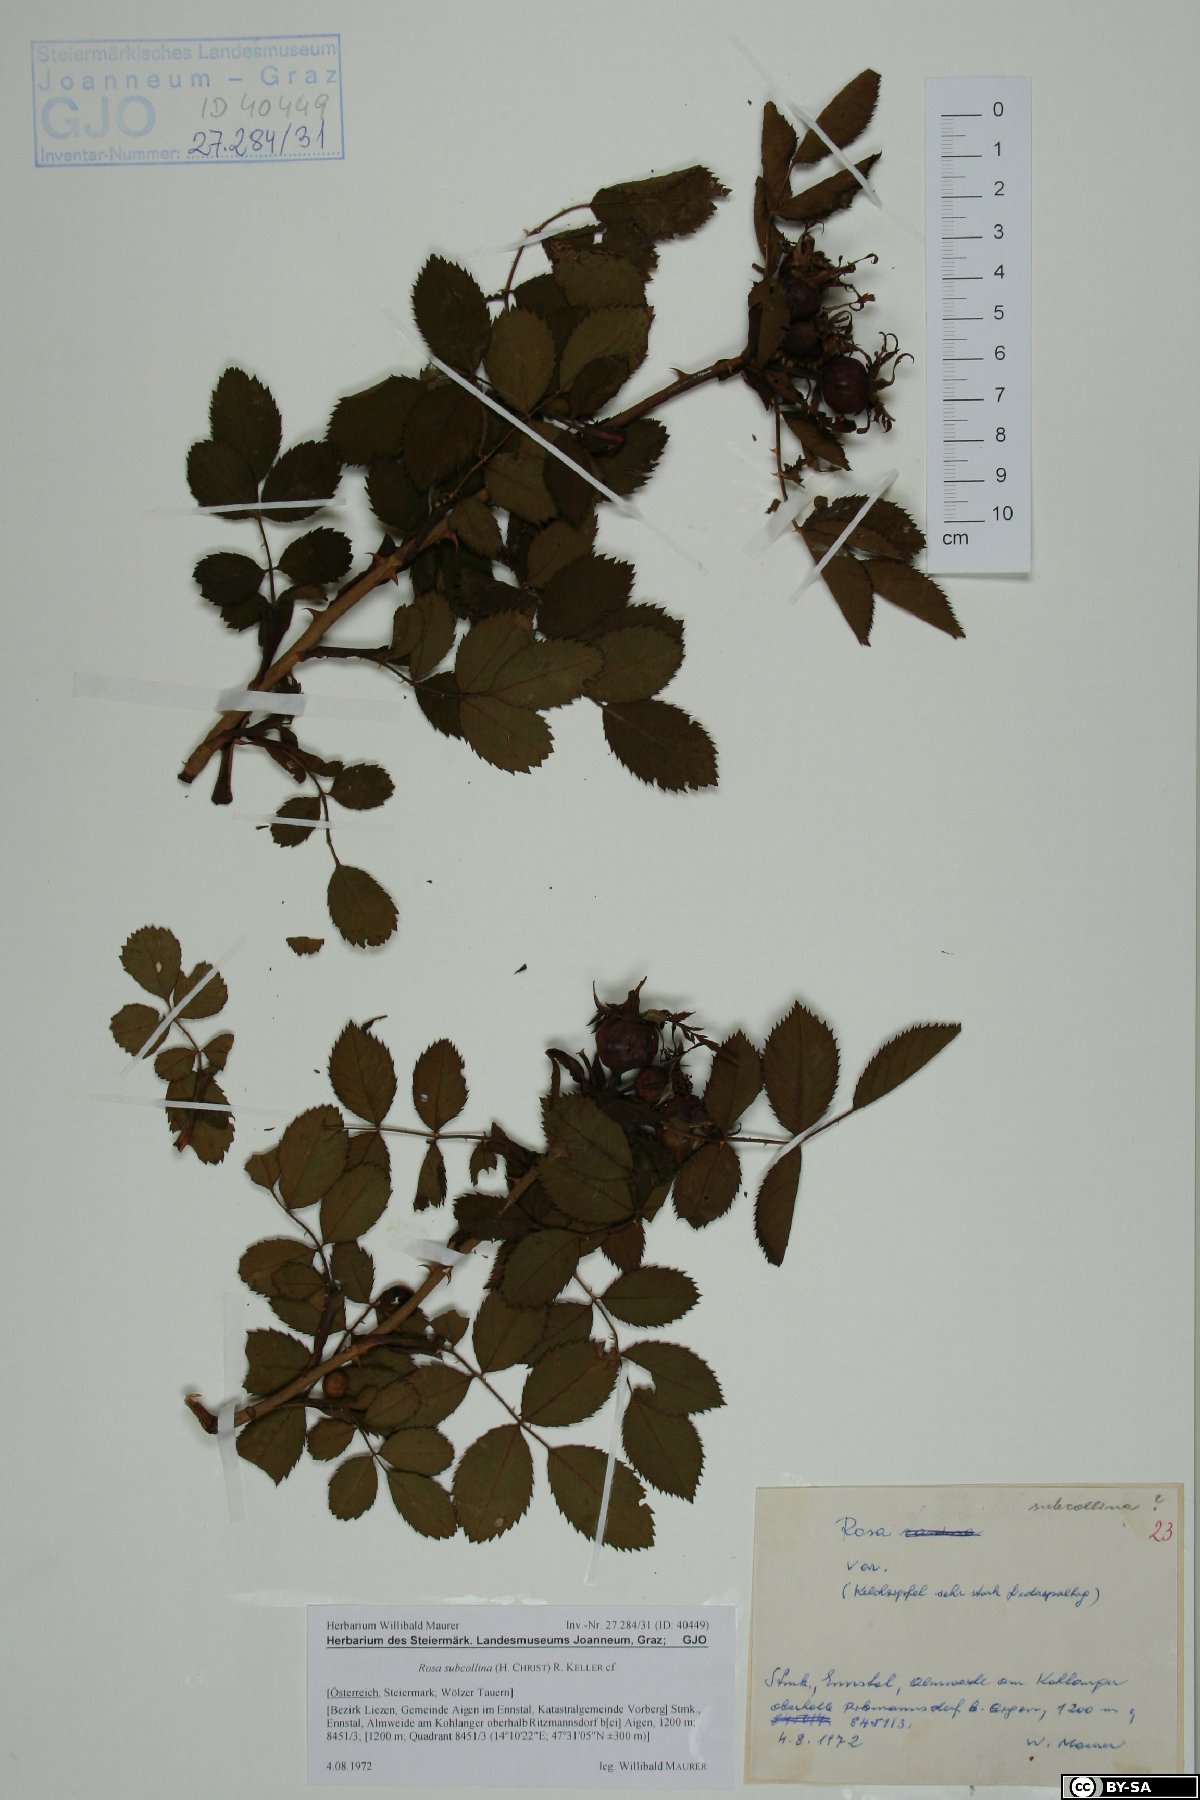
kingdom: Plantae
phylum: Tracheophyta
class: Magnoliopsida
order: Rosales
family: Rosaceae
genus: Rosa
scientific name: Rosa subcollina
